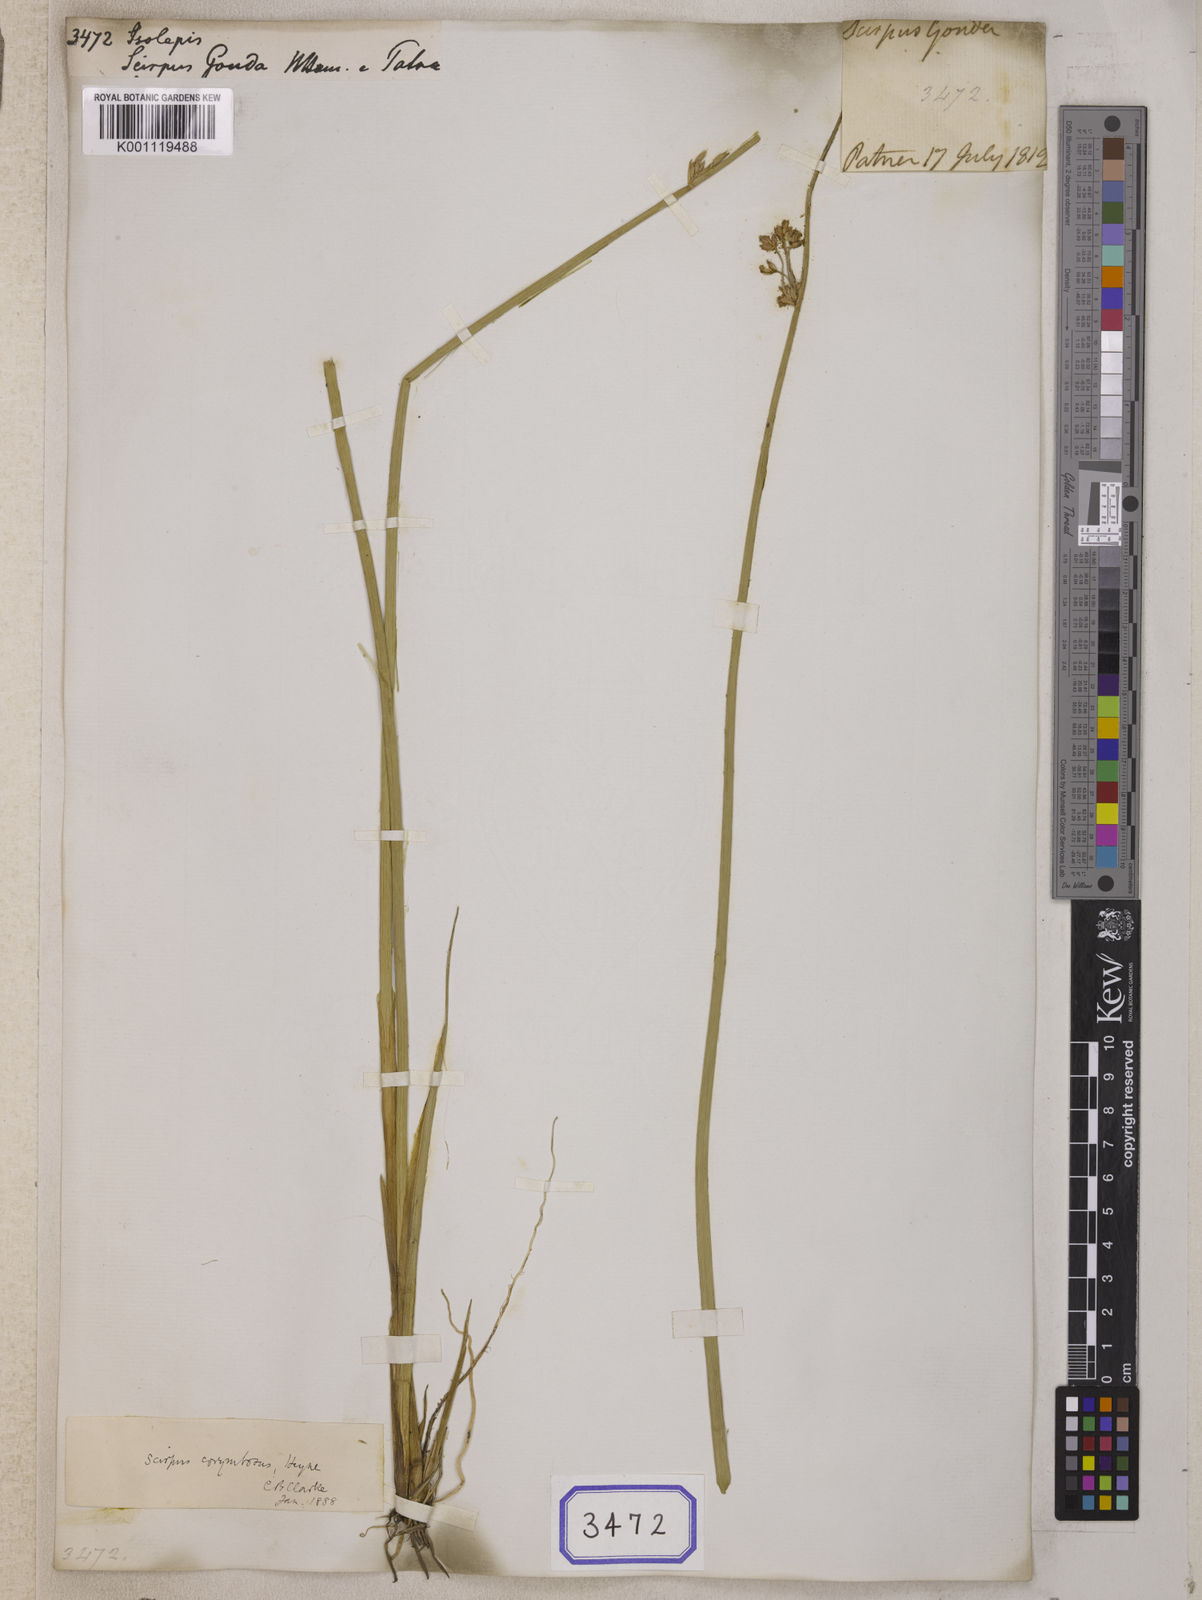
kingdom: Plantae
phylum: Tracheophyta
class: Liliopsida
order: Poales
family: Cyperaceae
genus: Isolepis
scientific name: Isolepis
